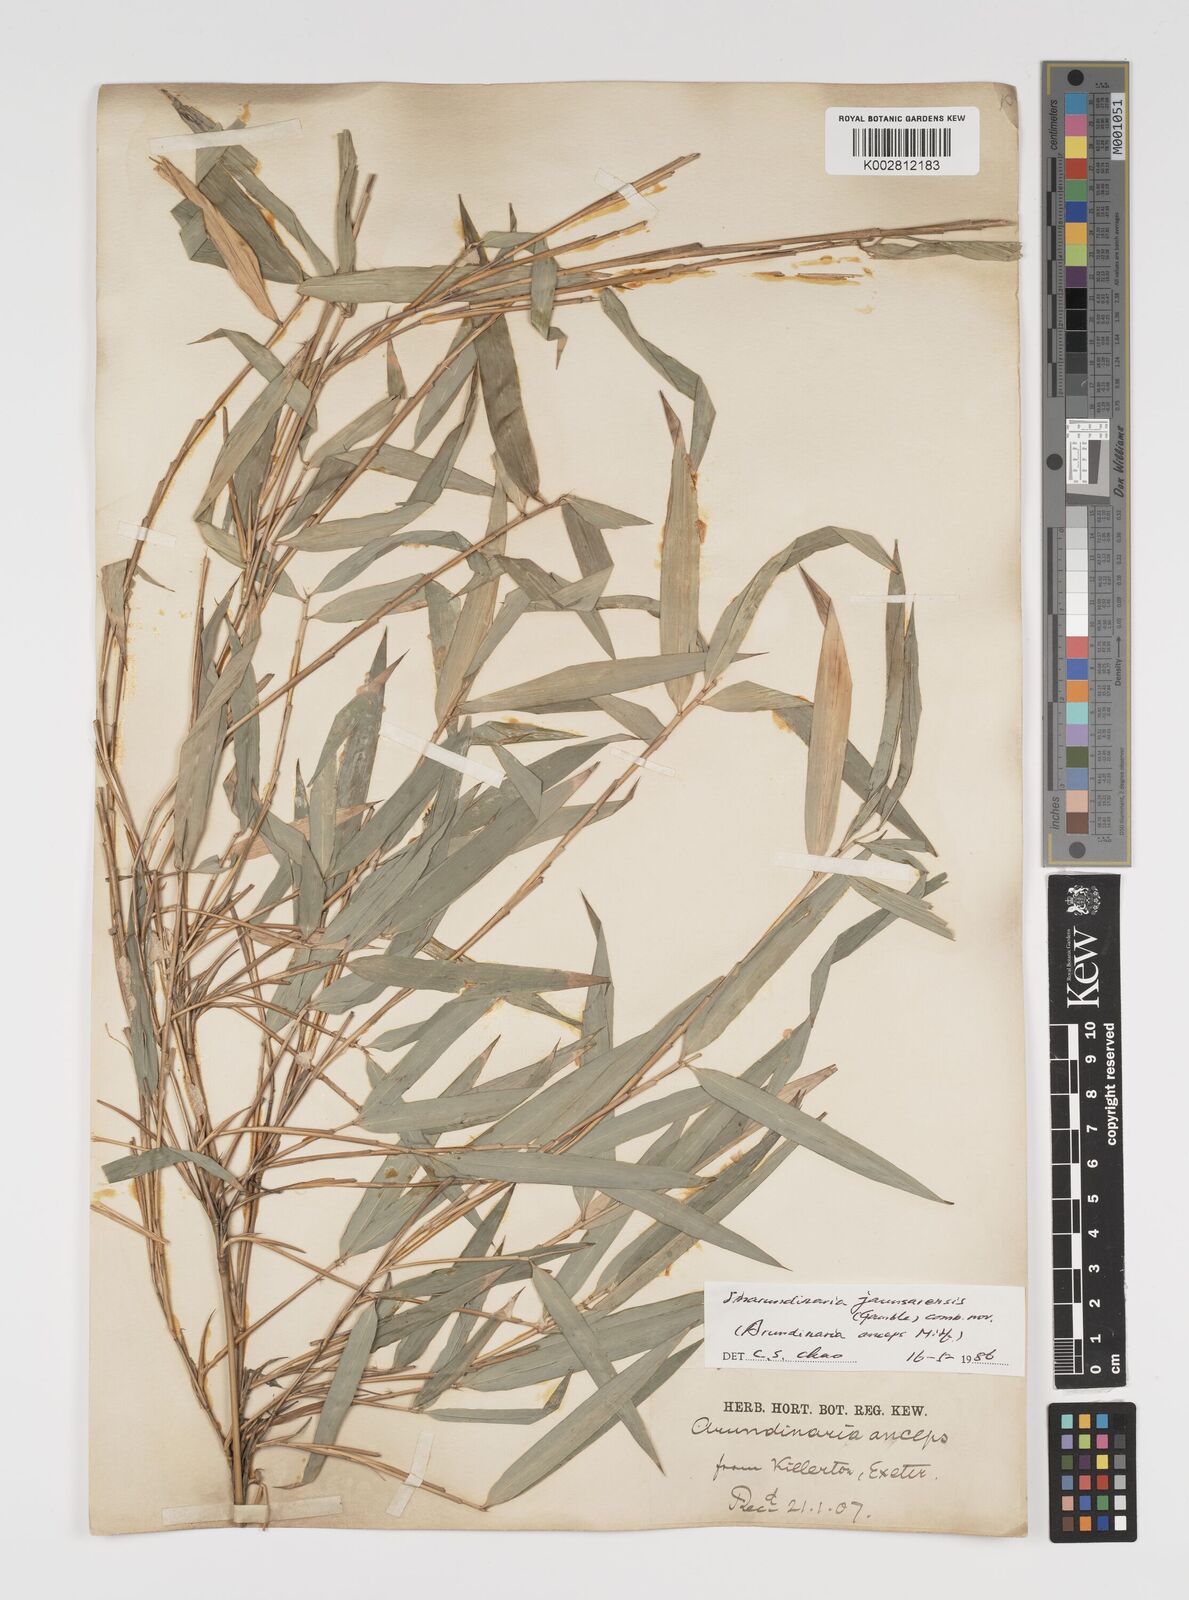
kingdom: Plantae
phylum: Tracheophyta
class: Liliopsida
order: Poales
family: Poaceae
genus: Yushania
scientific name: Yushania anceps
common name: Indian fountain-bamboo
